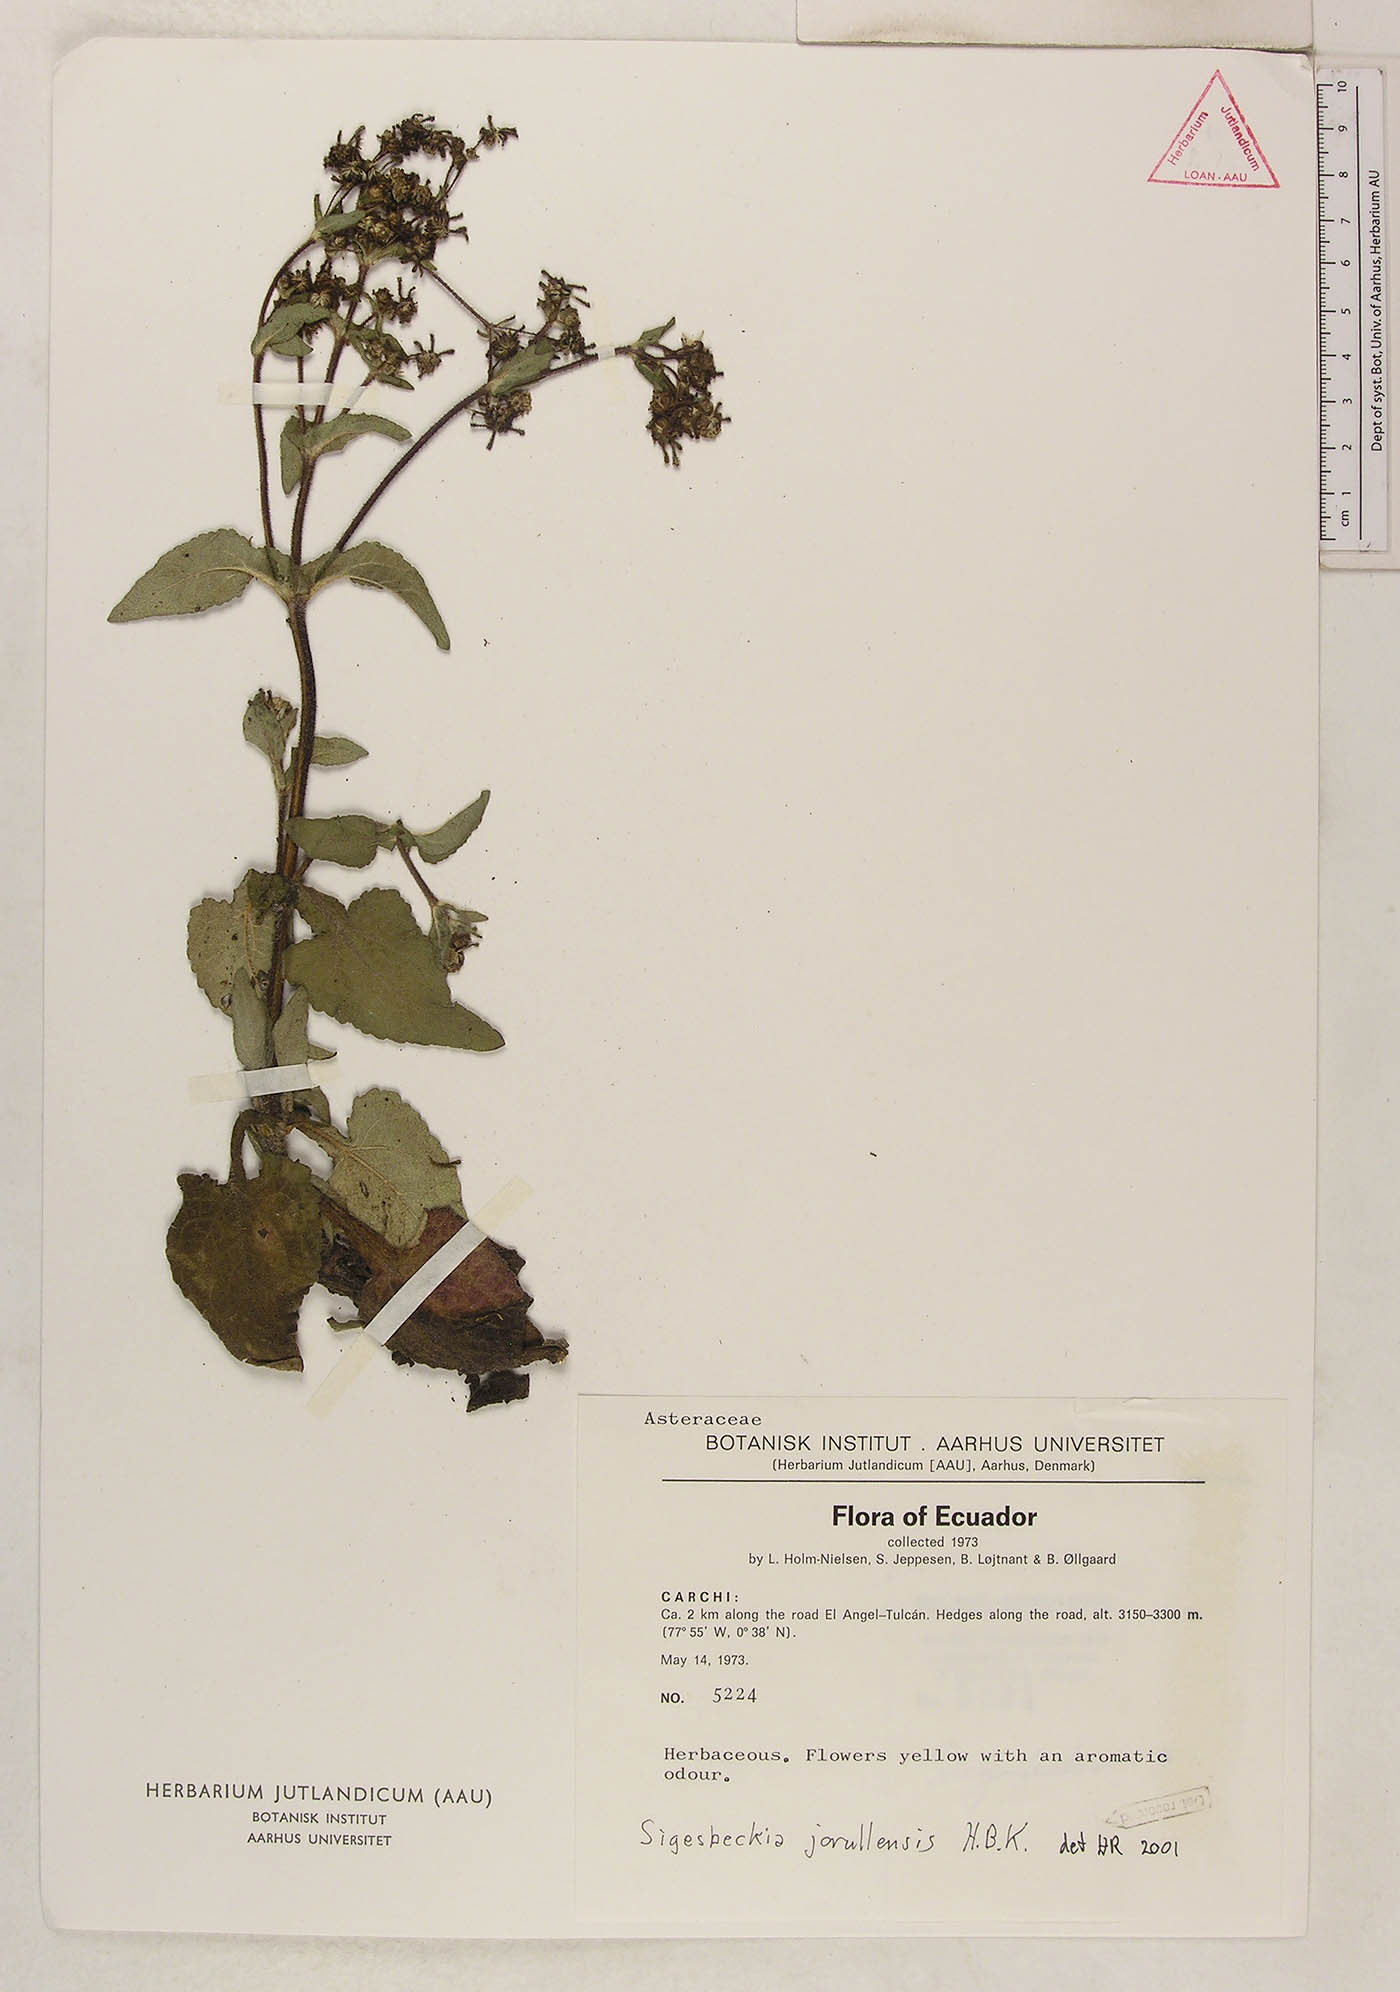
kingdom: Plantae
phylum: Tracheophyta
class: Magnoliopsida
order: Asterales
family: Asteraceae
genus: Sigesbeckia
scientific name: Sigesbeckia jorullensis
